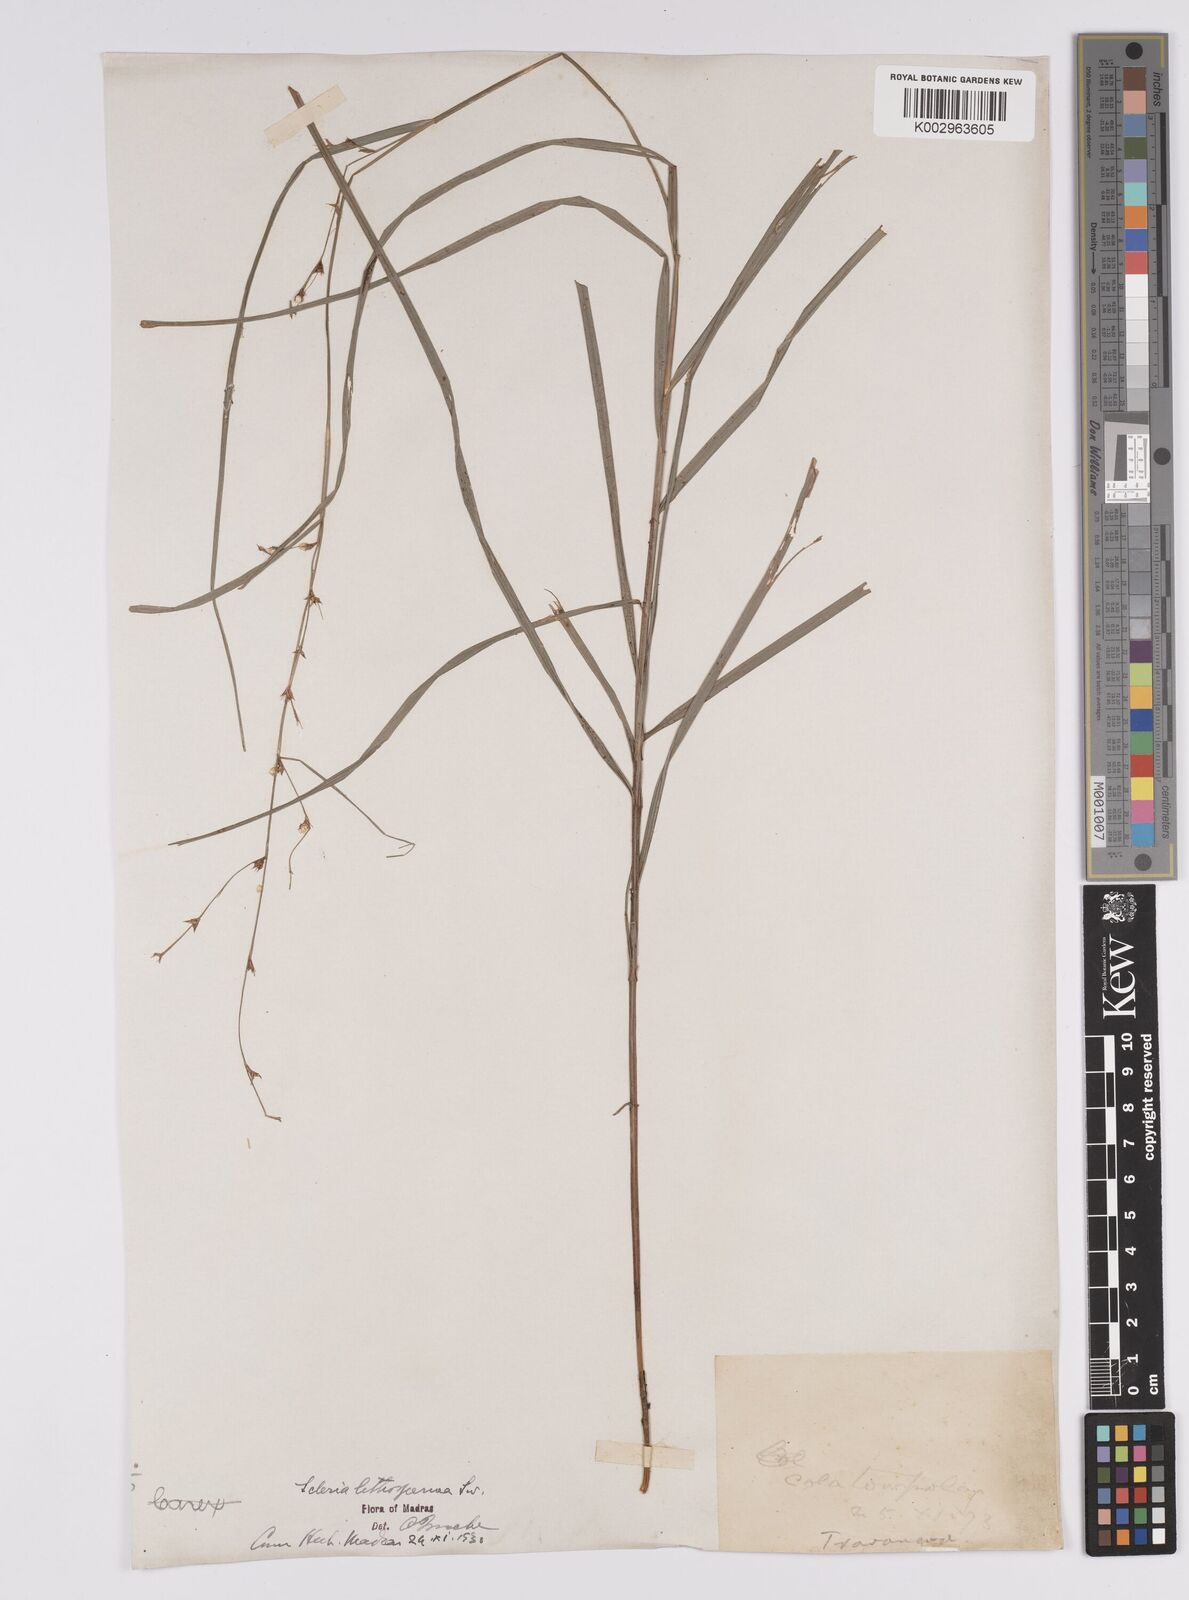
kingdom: Plantae
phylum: Tracheophyta
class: Liliopsida
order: Poales
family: Cyperaceae
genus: Scleria
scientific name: Scleria lithosperma
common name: Florida keys nut-rush
